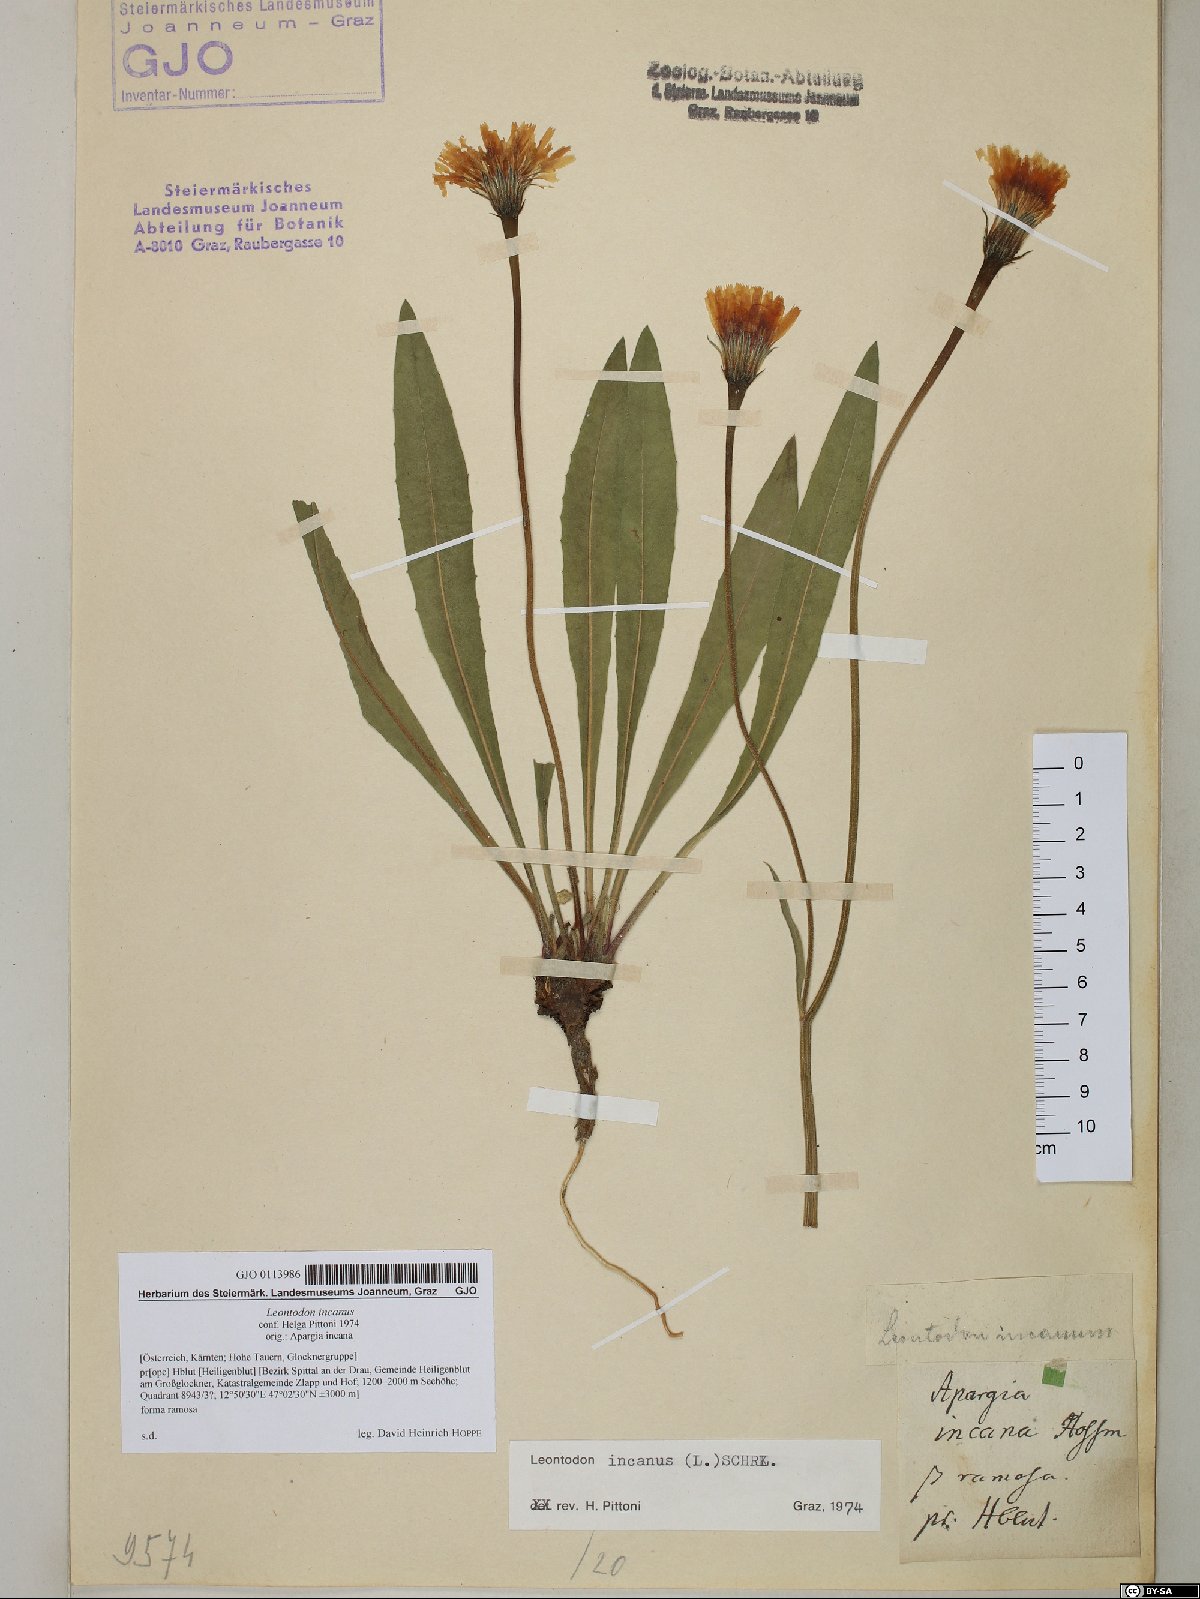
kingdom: Plantae
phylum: Tracheophyta
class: Magnoliopsida
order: Asterales
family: Asteraceae
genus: Leontodon
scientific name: Leontodon incanus
